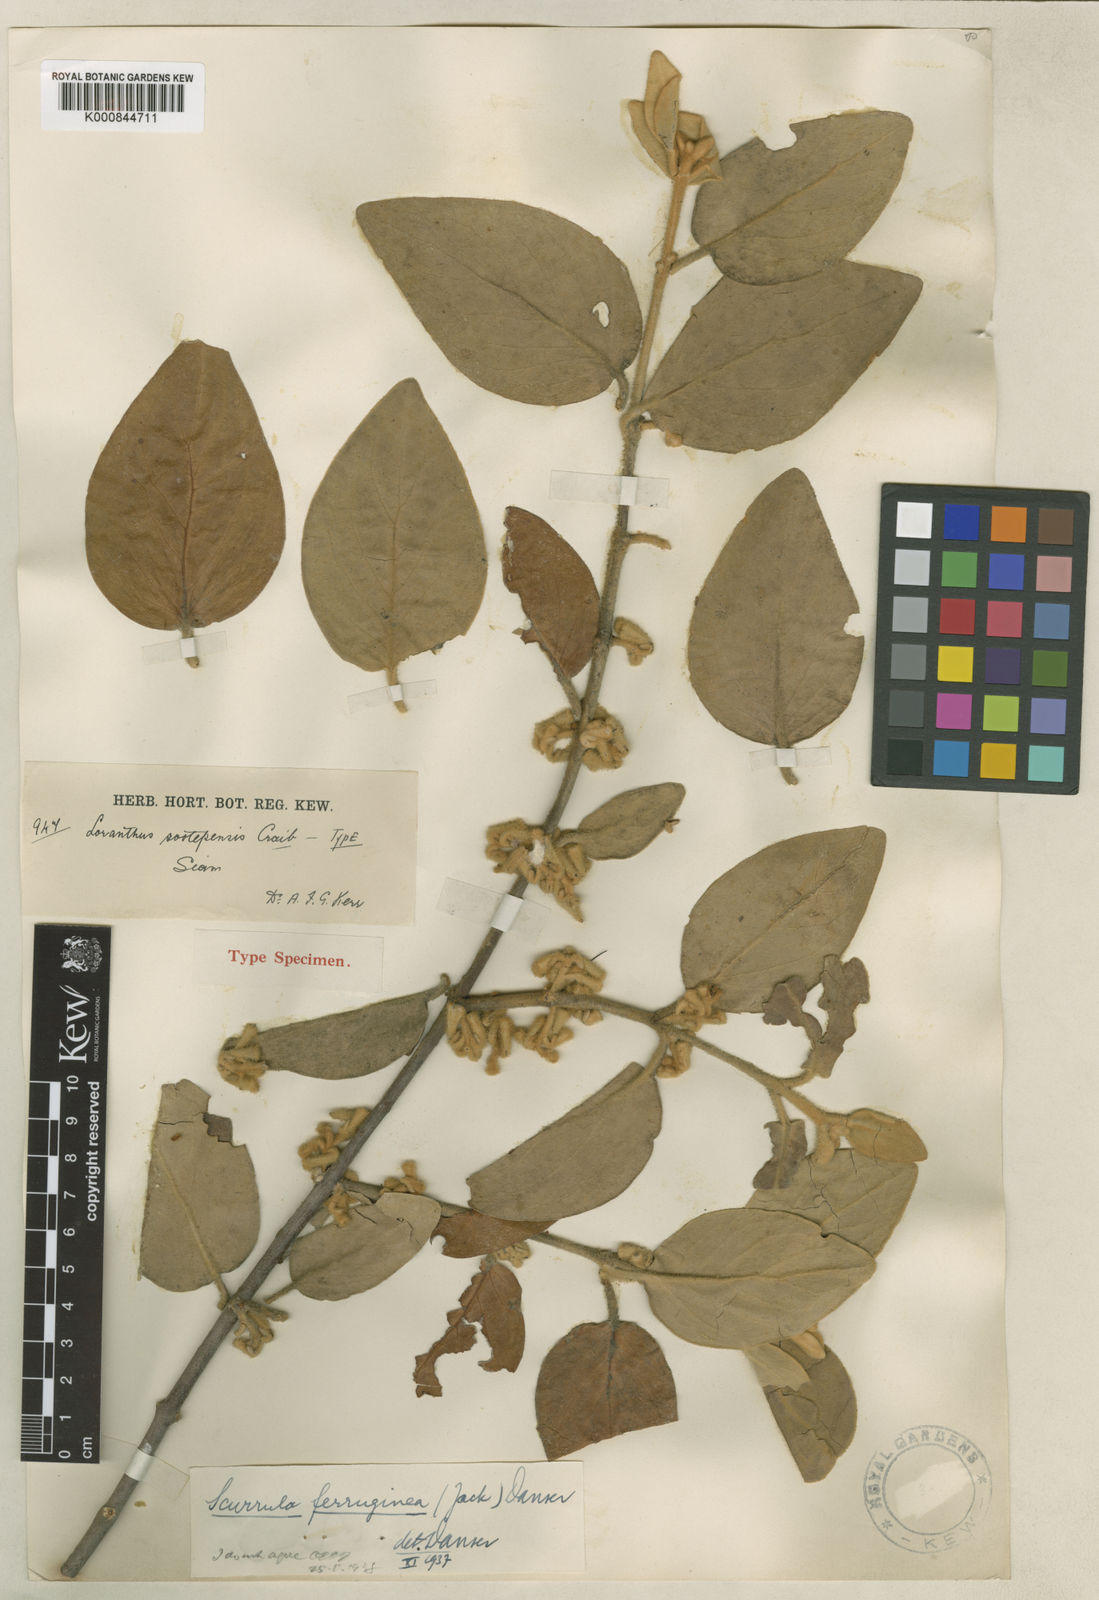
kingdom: Plantae
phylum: Tracheophyta
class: Magnoliopsida
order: Santalales
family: Loranthaceae
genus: Scurrula
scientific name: Scurrula ferruginea
